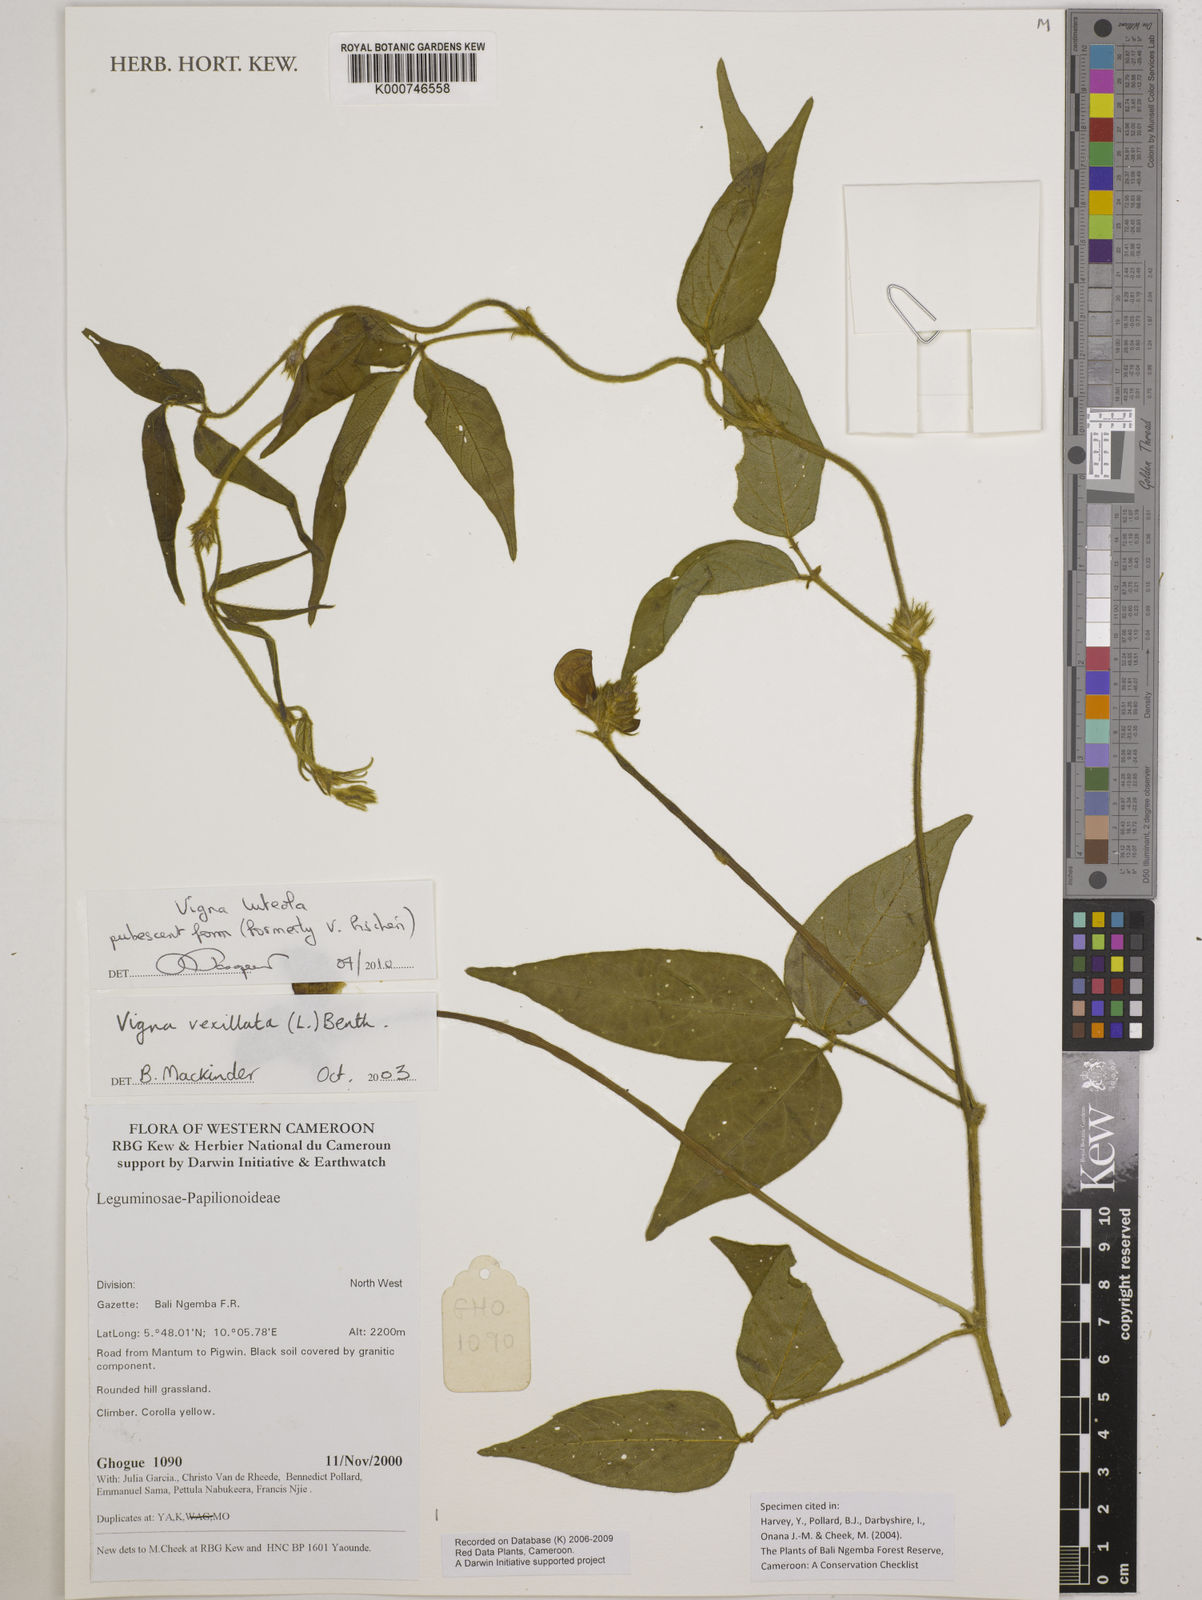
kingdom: Plantae
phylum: Tracheophyta
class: Magnoliopsida
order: Fabales
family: Fabaceae
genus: Vigna
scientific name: Vigna luteola
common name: Hairypod cowpea
